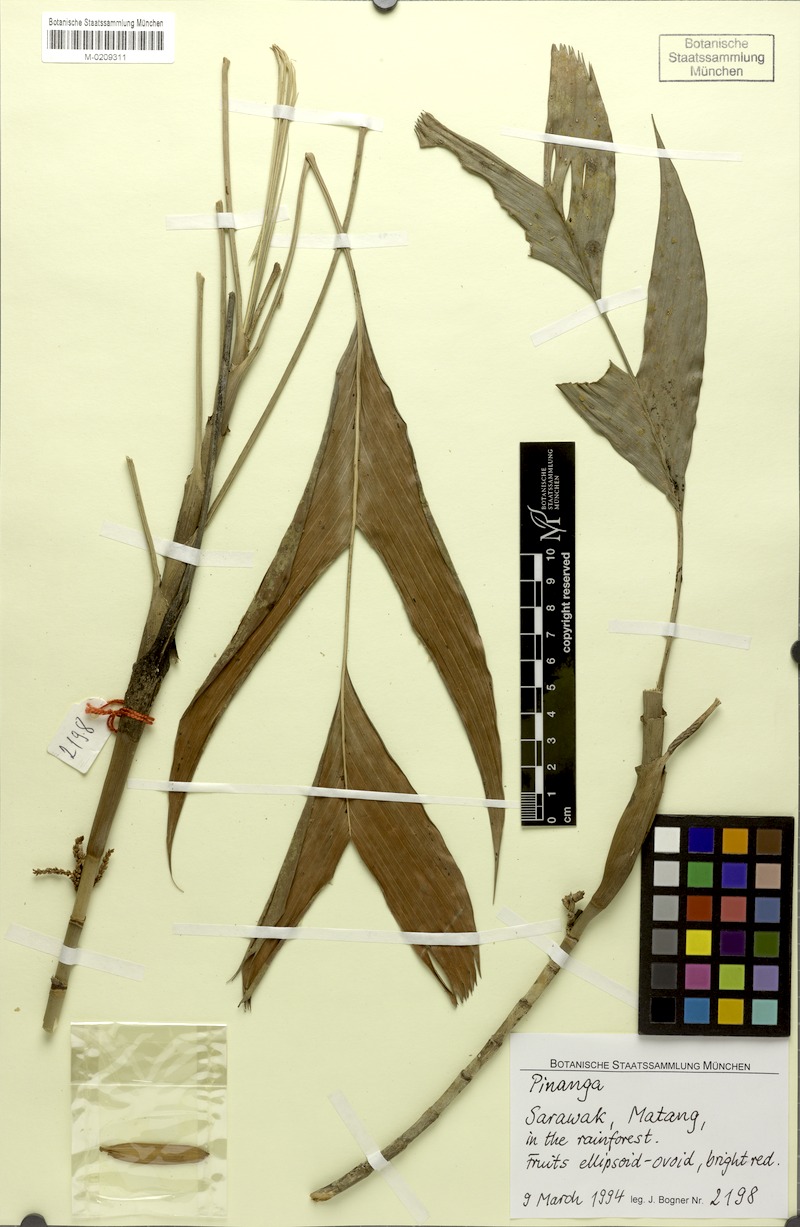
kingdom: Plantae
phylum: Tracheophyta
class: Liliopsida
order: Arecales
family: Arecaceae
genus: Pinanga
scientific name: Pinanga
